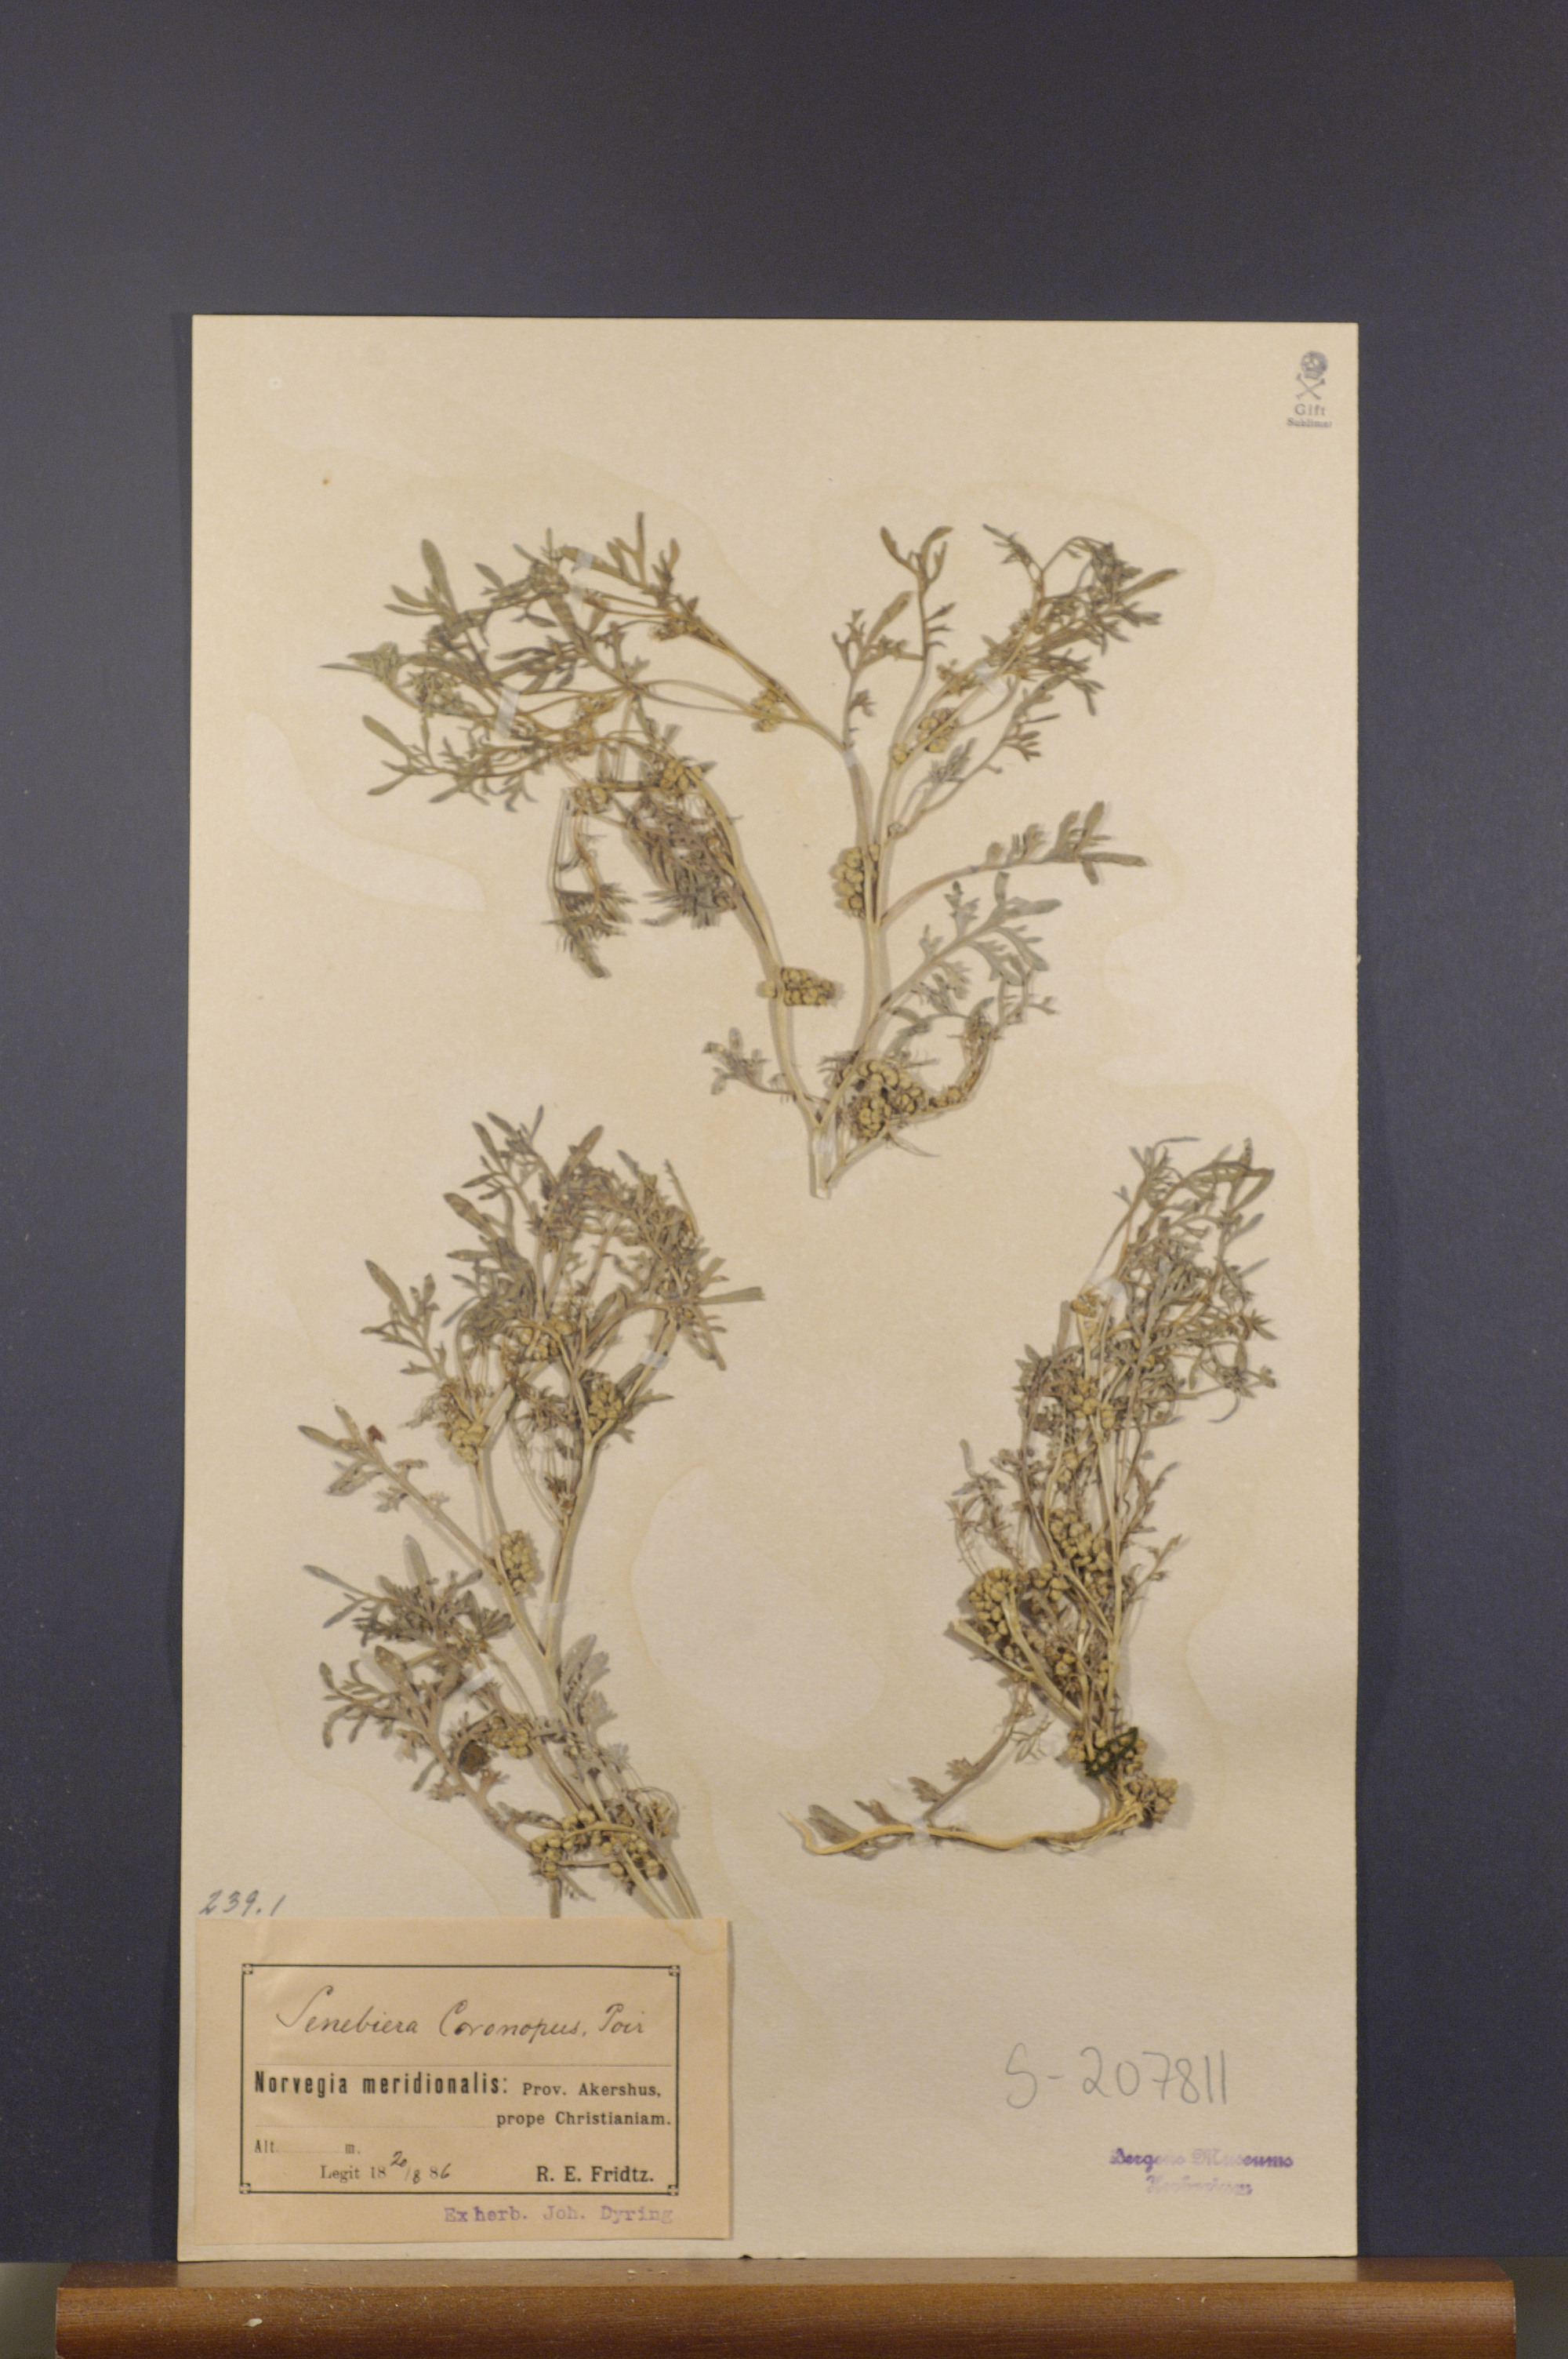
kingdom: Plantae
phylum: Tracheophyta
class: Magnoliopsida
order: Brassicales
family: Brassicaceae
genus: Lepidium
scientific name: Lepidium coronopus
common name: Greater swinecress
